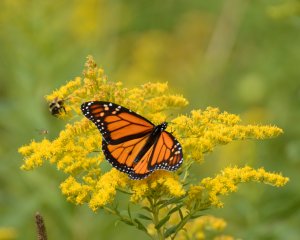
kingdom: Animalia
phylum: Arthropoda
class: Insecta
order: Lepidoptera
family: Nymphalidae
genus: Danaus
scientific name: Danaus plexippus
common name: Monarch
